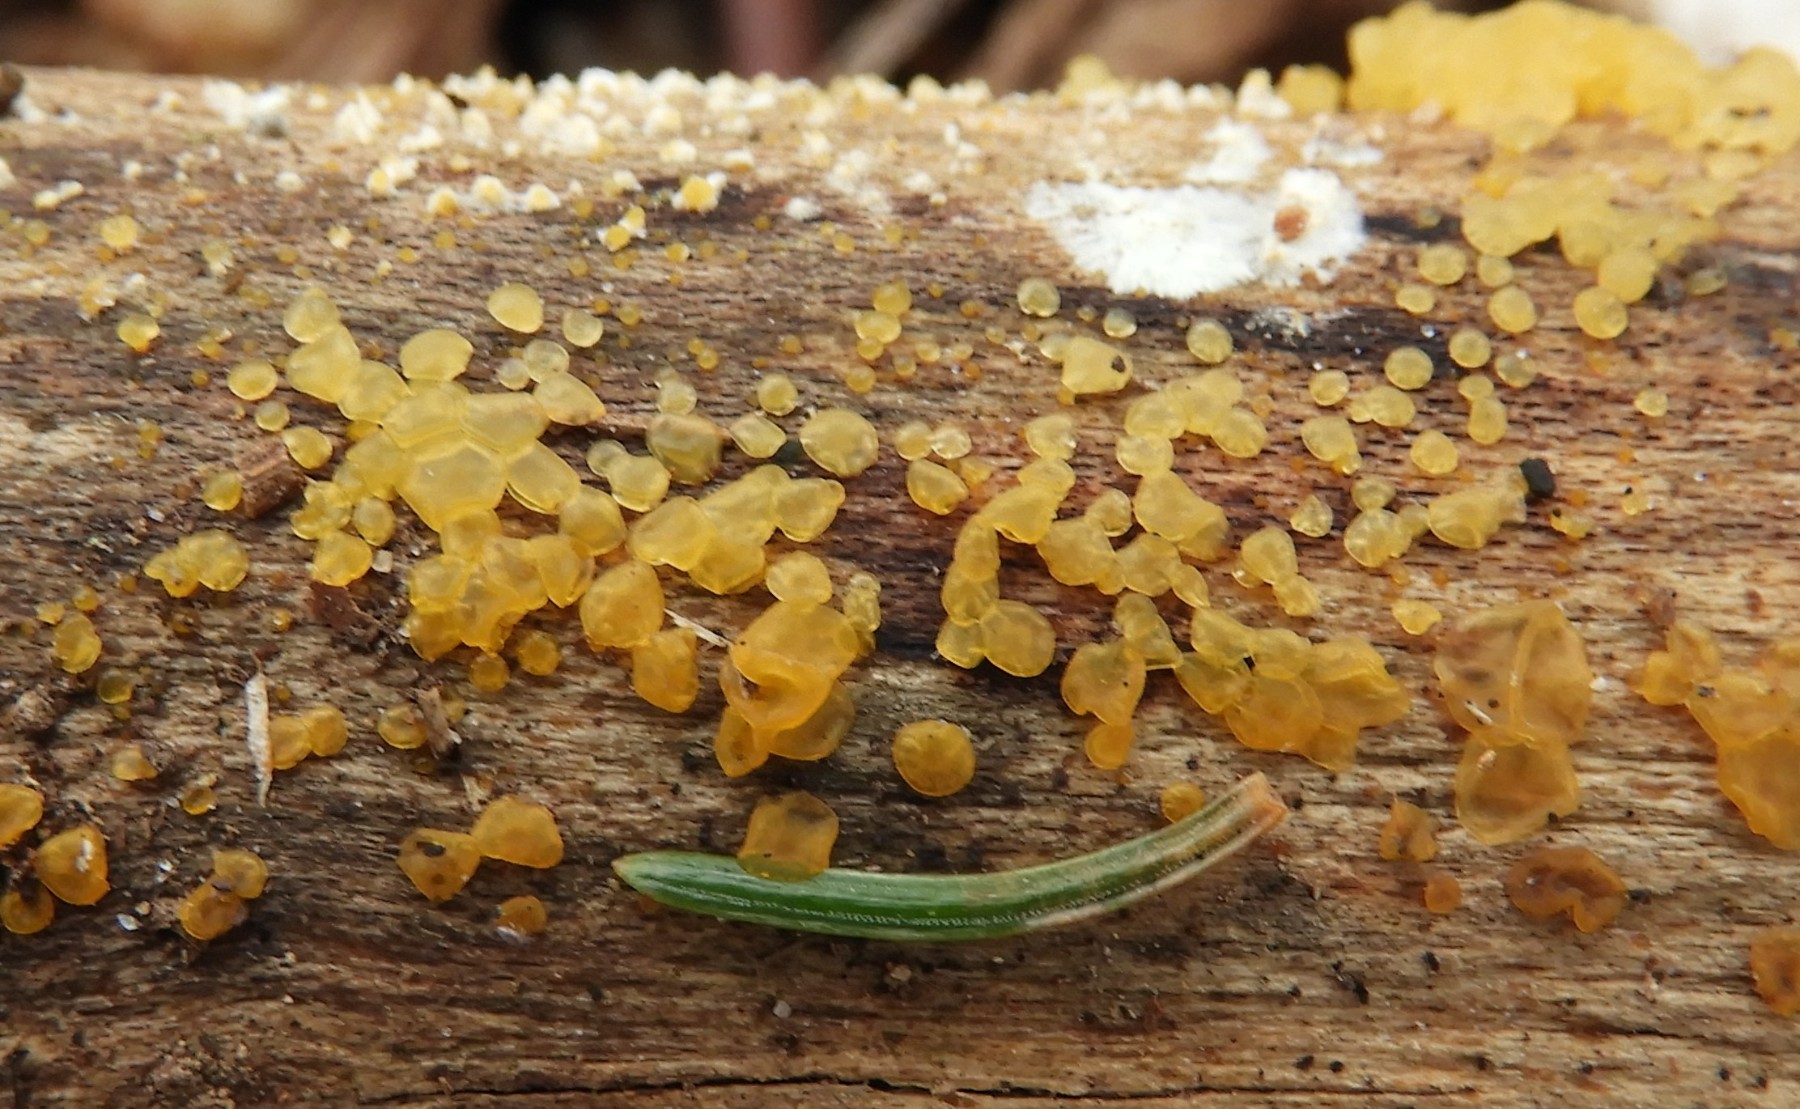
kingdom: Fungi
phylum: Basidiomycota
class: Dacrymycetes
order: Dacrymycetales
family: Dacrymycetaceae
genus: Dacrymyces
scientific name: Dacrymyces stillatus
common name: almindelig tåresvamp
